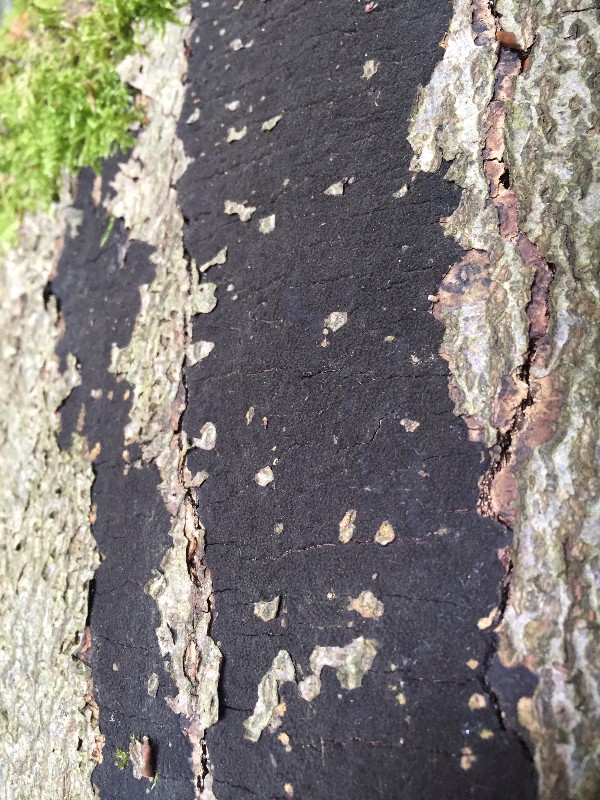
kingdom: Fungi
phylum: Ascomycota
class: Sordariomycetes
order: Xylariales
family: Diatrypaceae
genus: Eutypa
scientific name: Eutypa spinosa
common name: grov kulskorpe
